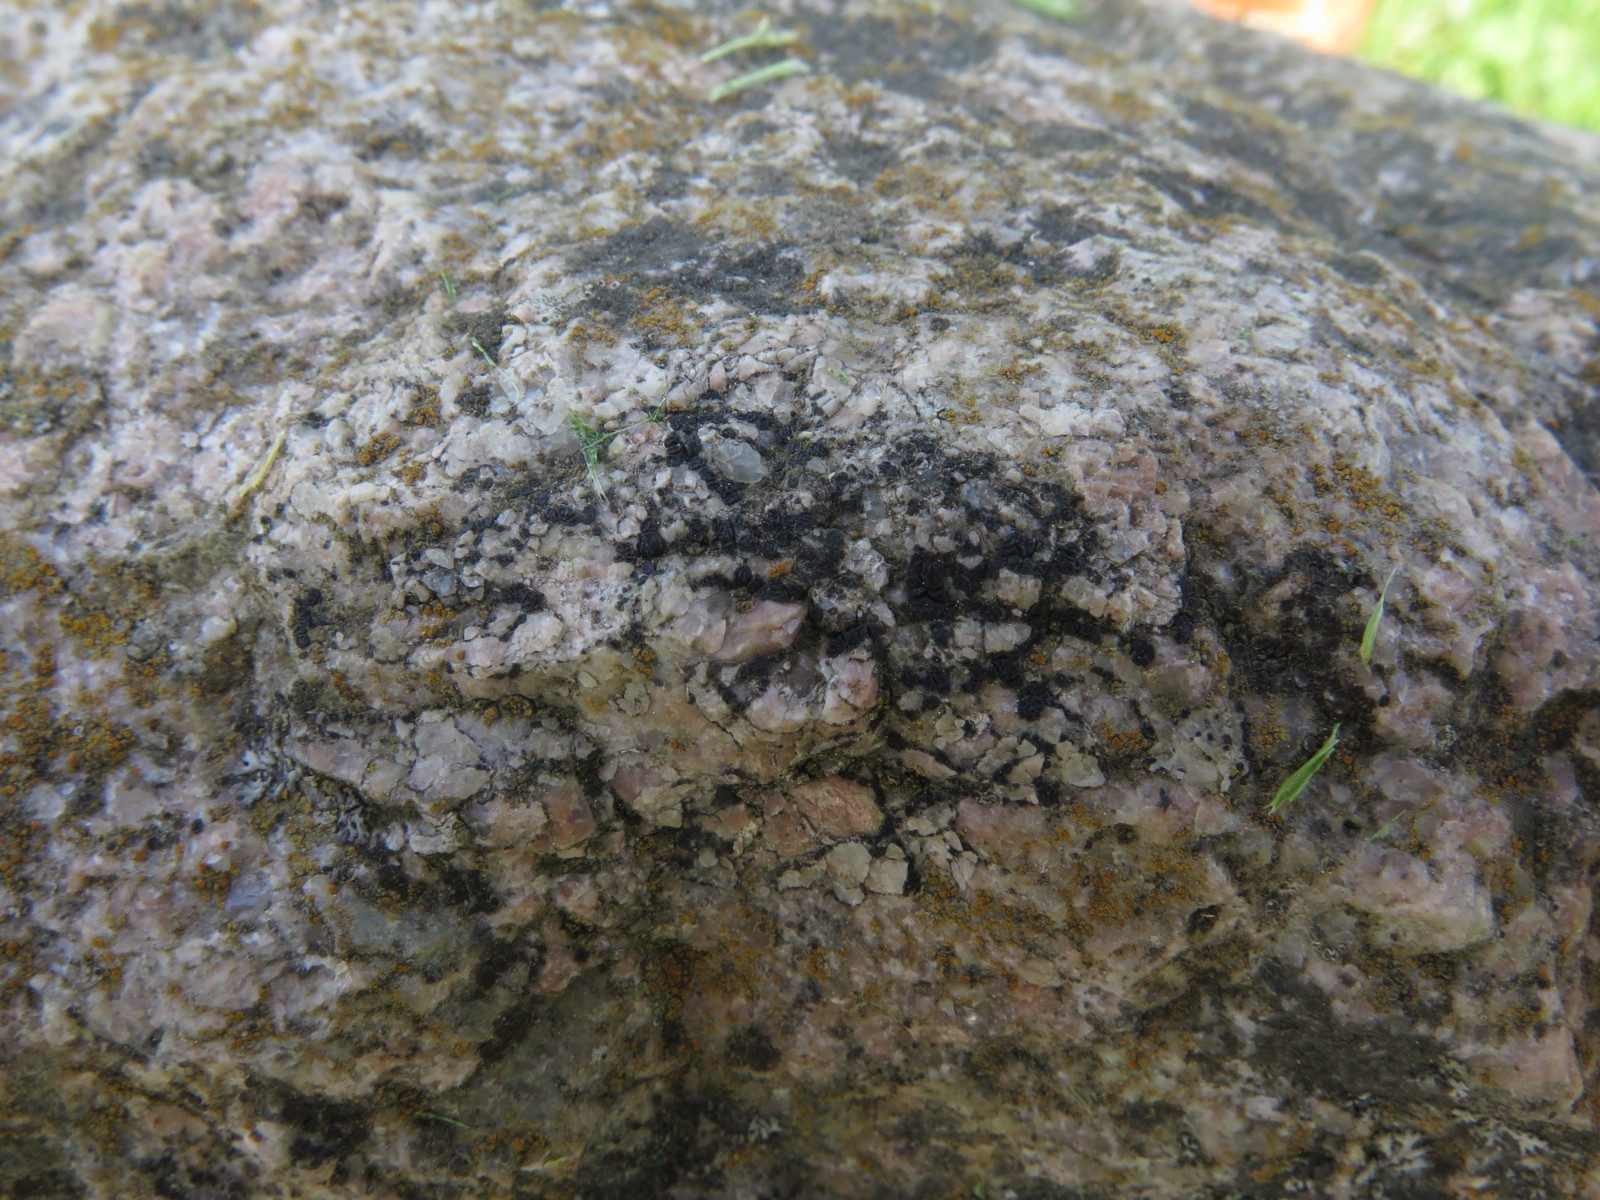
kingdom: Fungi
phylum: Ascomycota
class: Lecanoromycetes
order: Acarosporales
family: Acarosporaceae
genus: Acarospora
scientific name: Acarospora privigna
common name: sort foldekantlav
